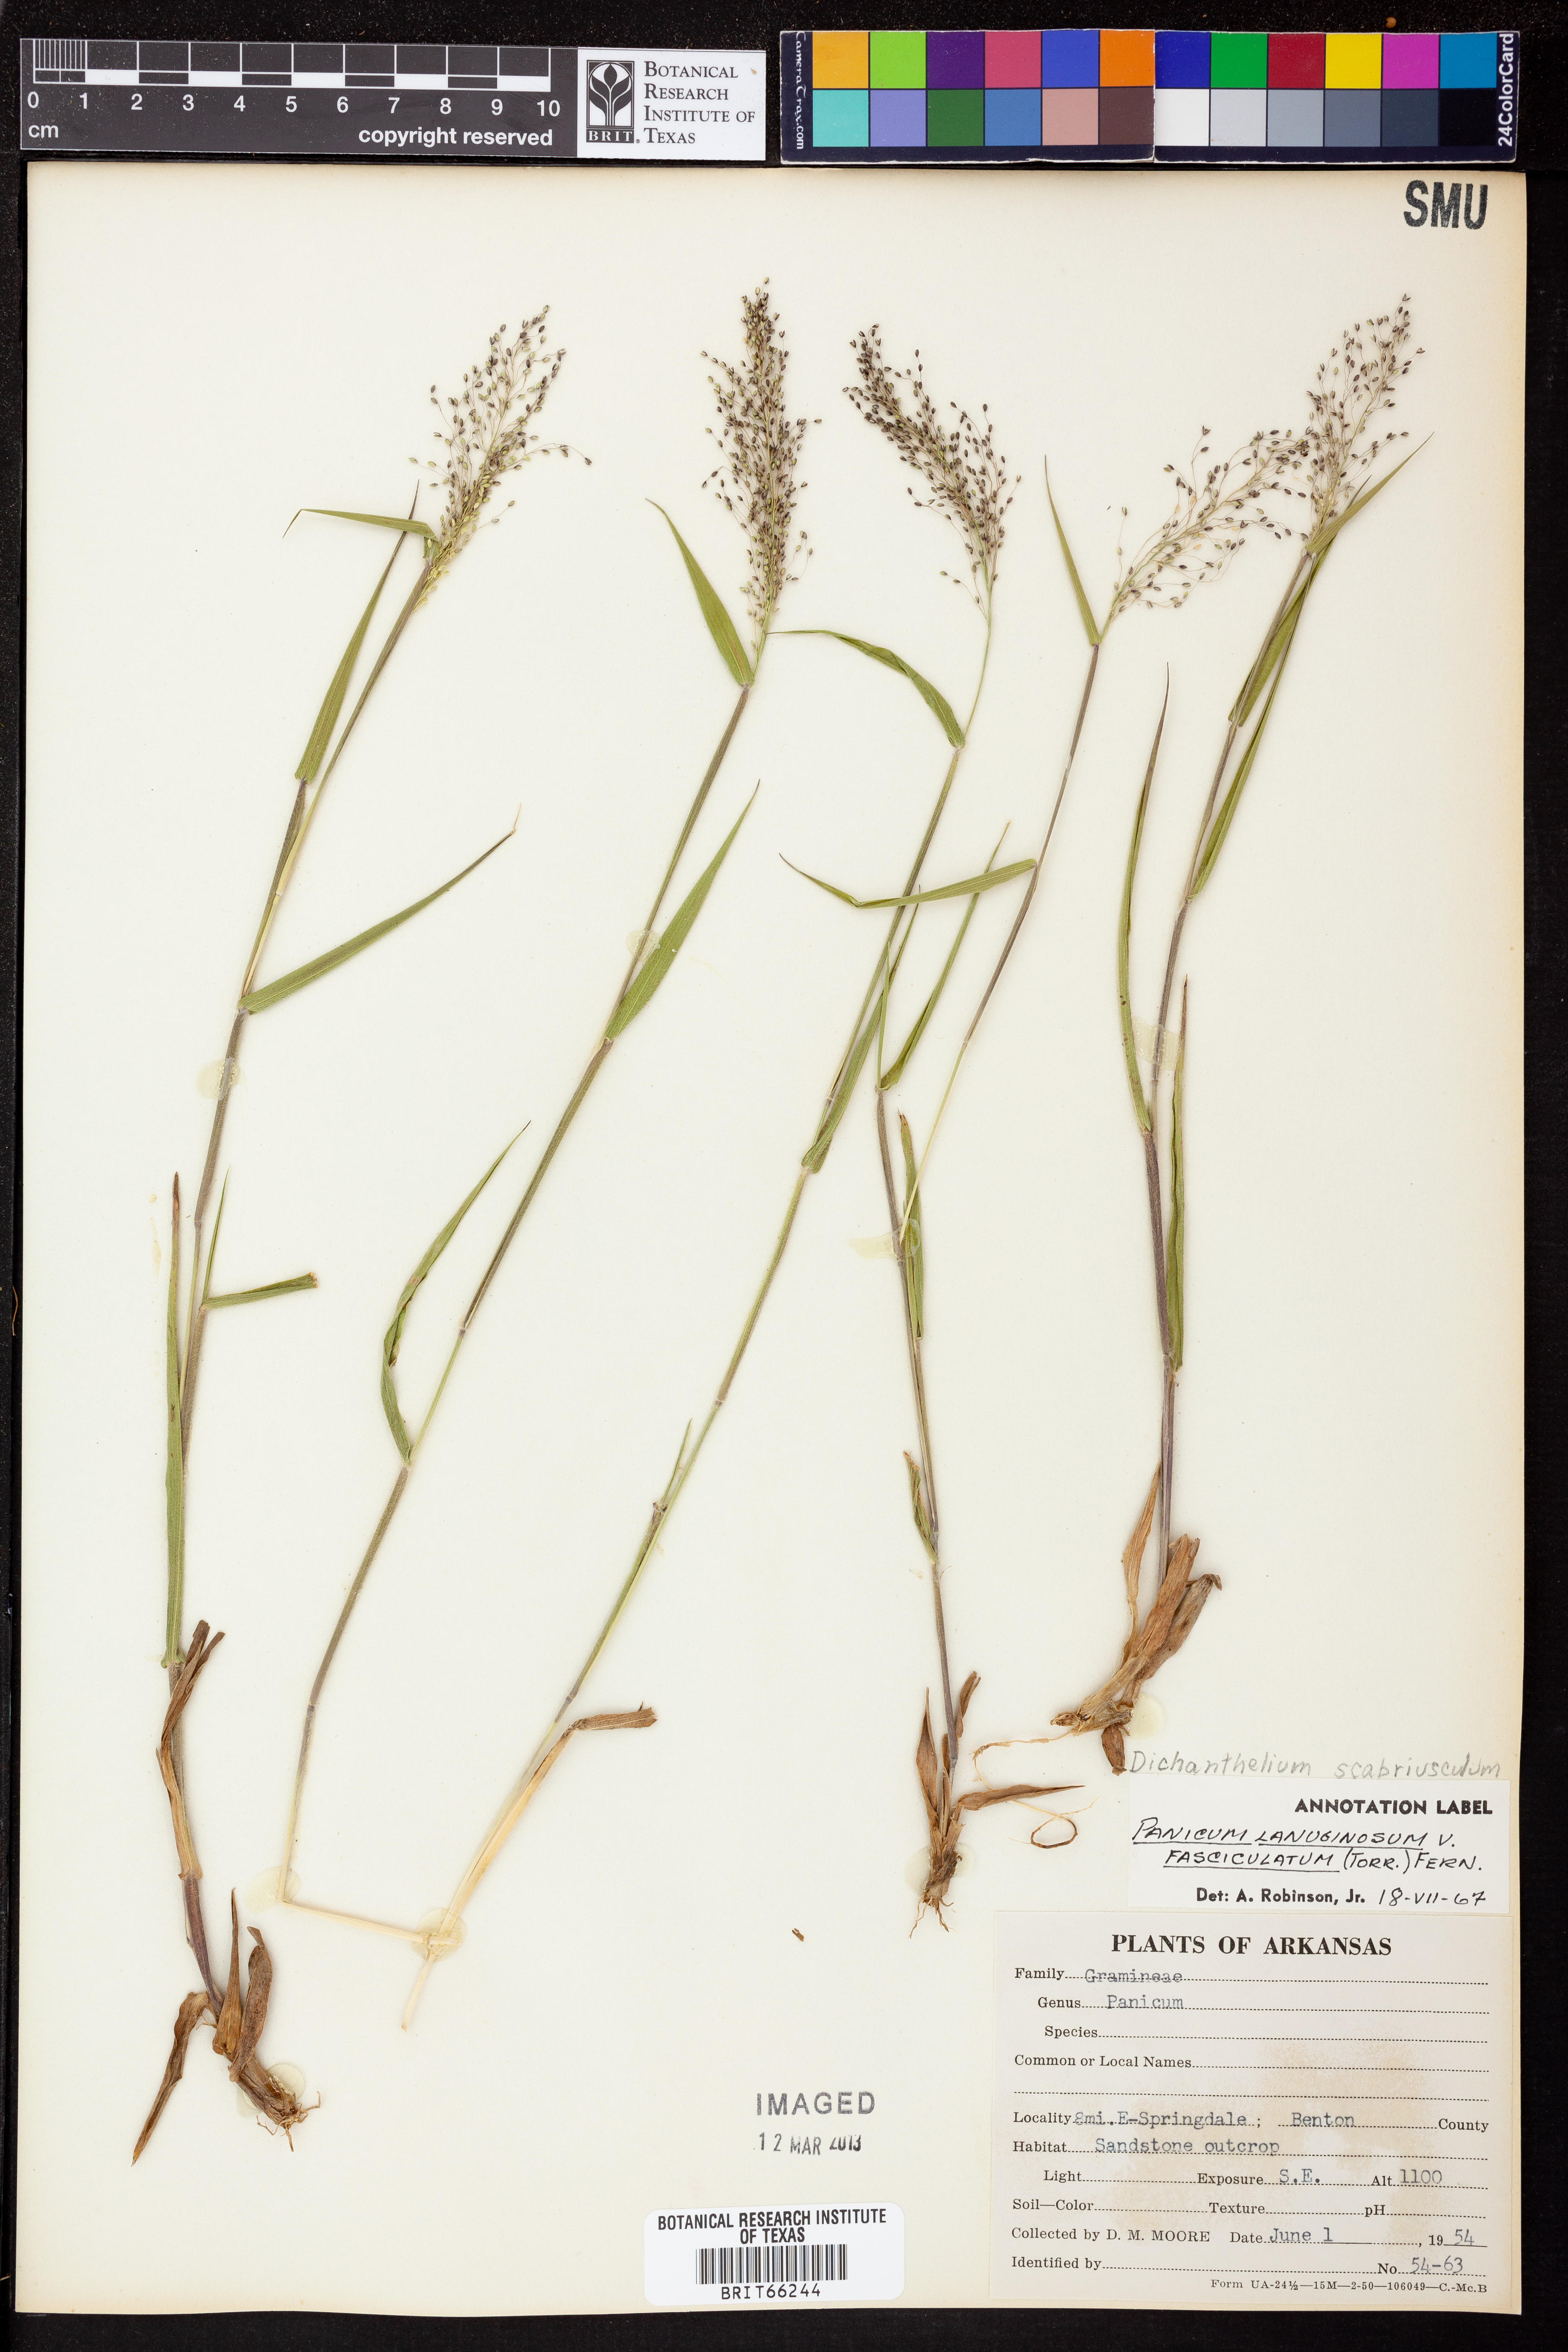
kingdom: Plantae
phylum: Tracheophyta
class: Liliopsida
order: Poales
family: Poaceae
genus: Dichanthelium
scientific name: Dichanthelium lanuginosum
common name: Woolly panicgrass
